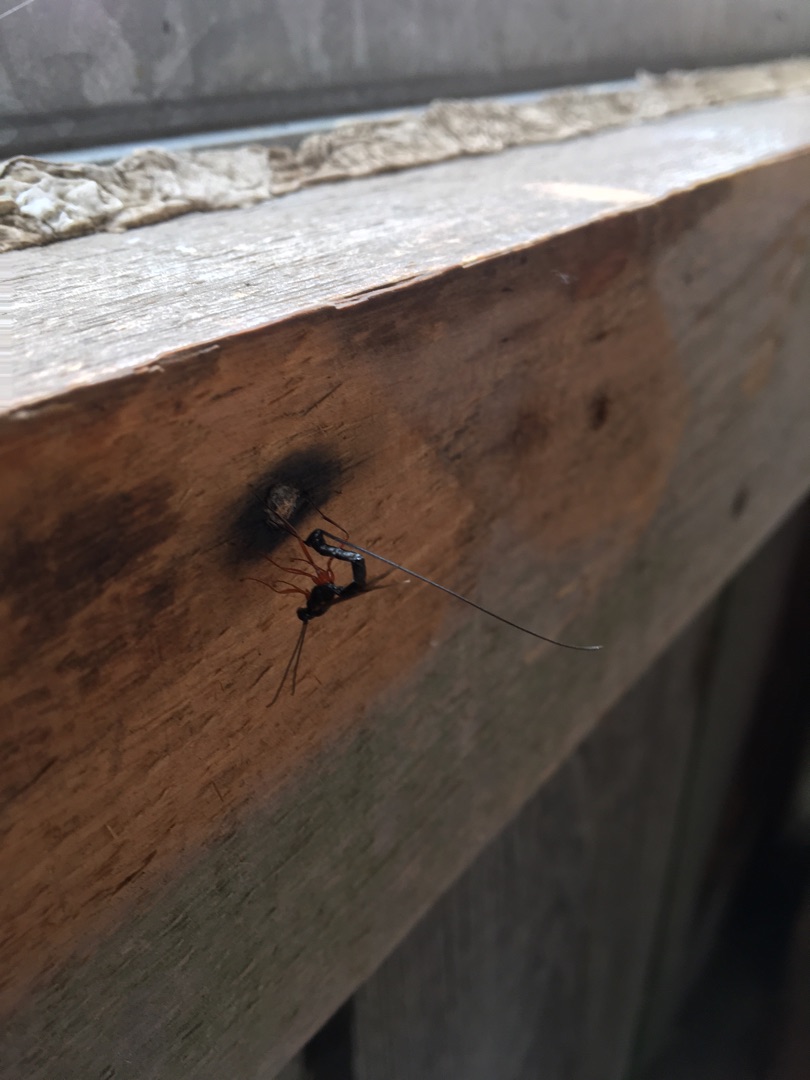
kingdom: Animalia
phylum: Arthropoda
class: Insecta
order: Hymenoptera
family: Ichneumonidae
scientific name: Ichneumonidae
